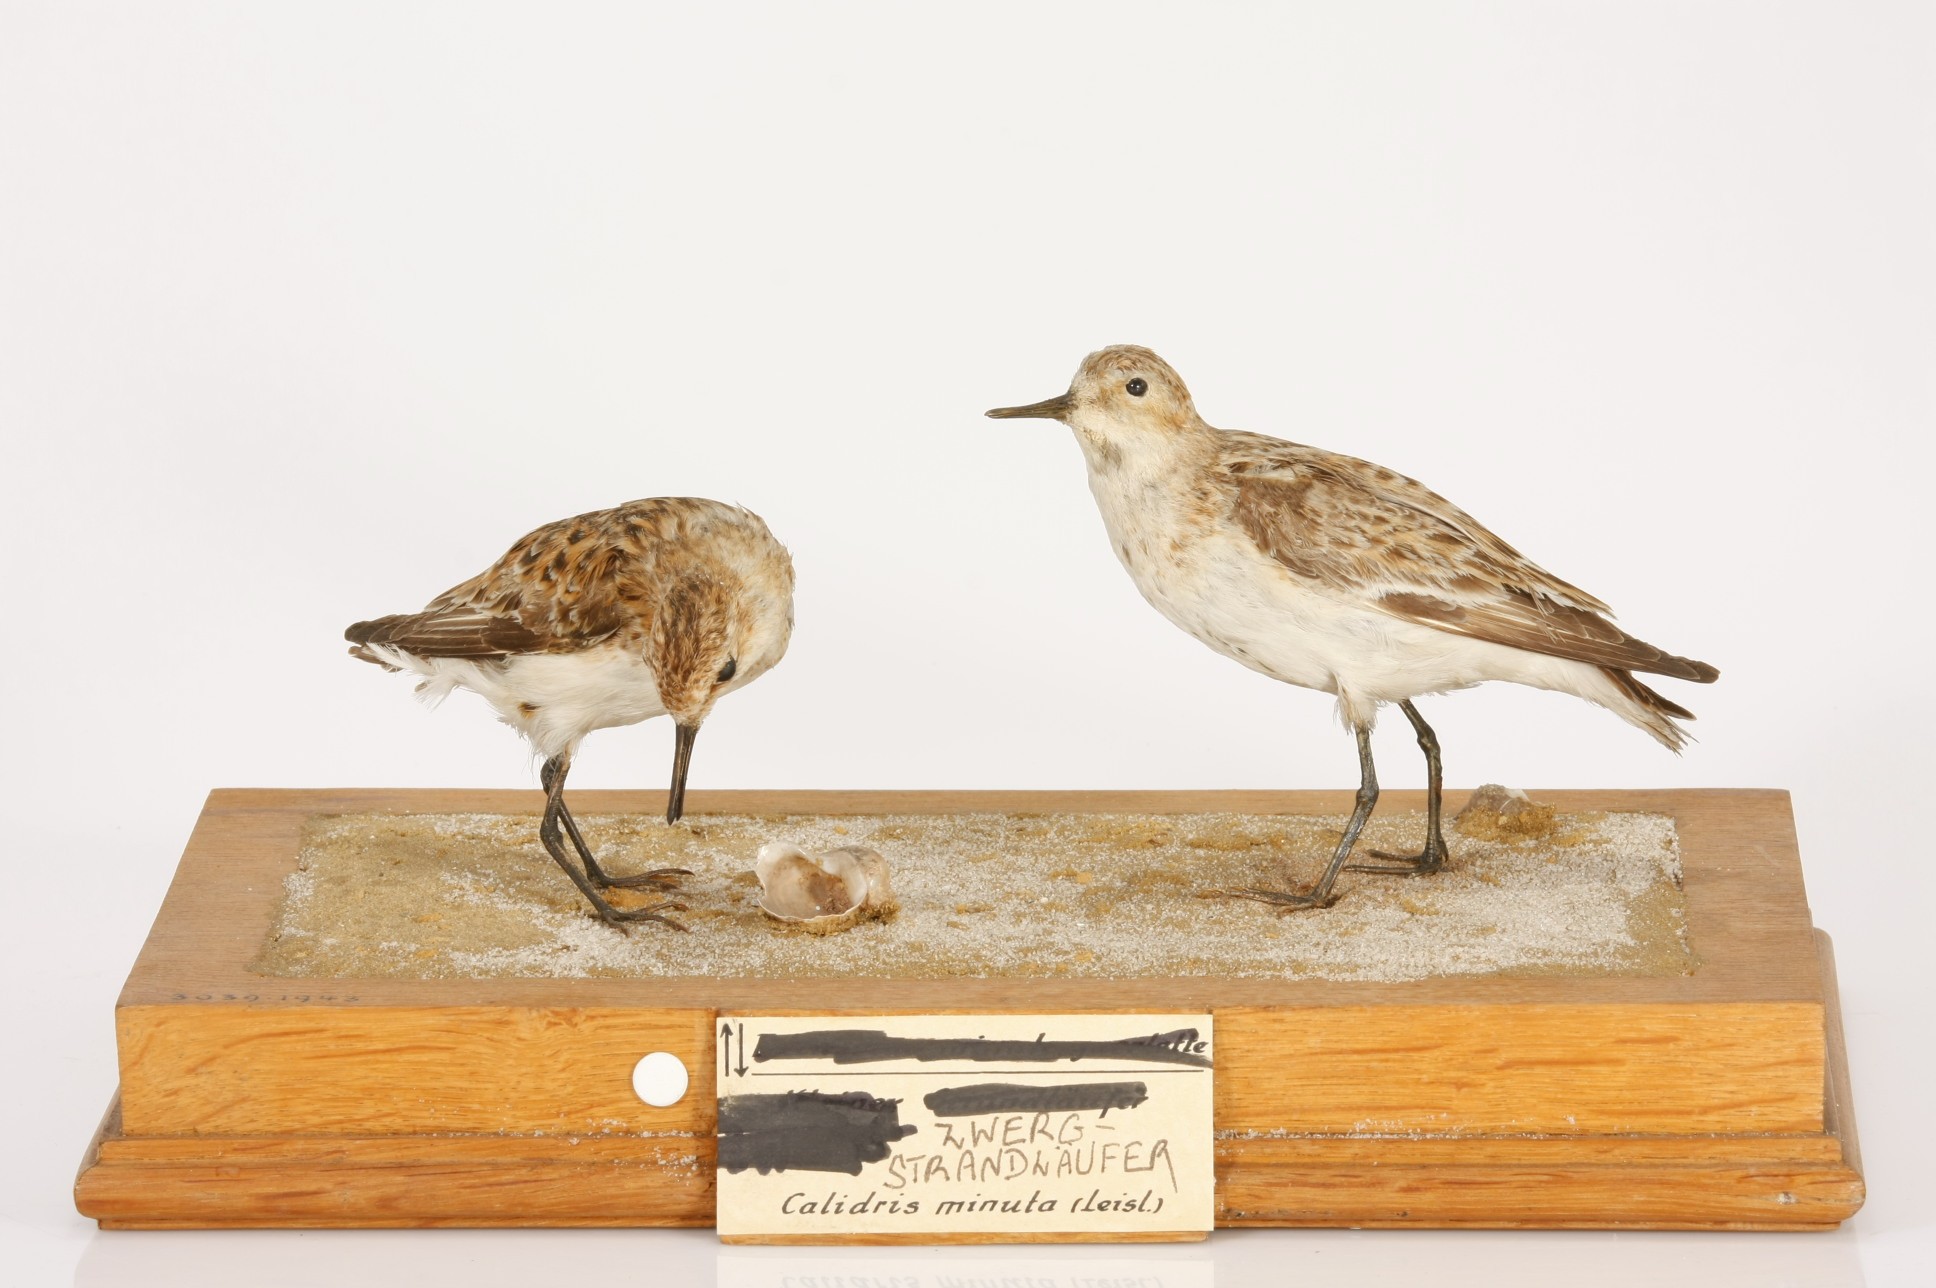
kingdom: Animalia
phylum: Chordata
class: Aves
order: Charadriiformes
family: Scolopacidae
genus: Calidris
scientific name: Calidris minuta
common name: Little stint
